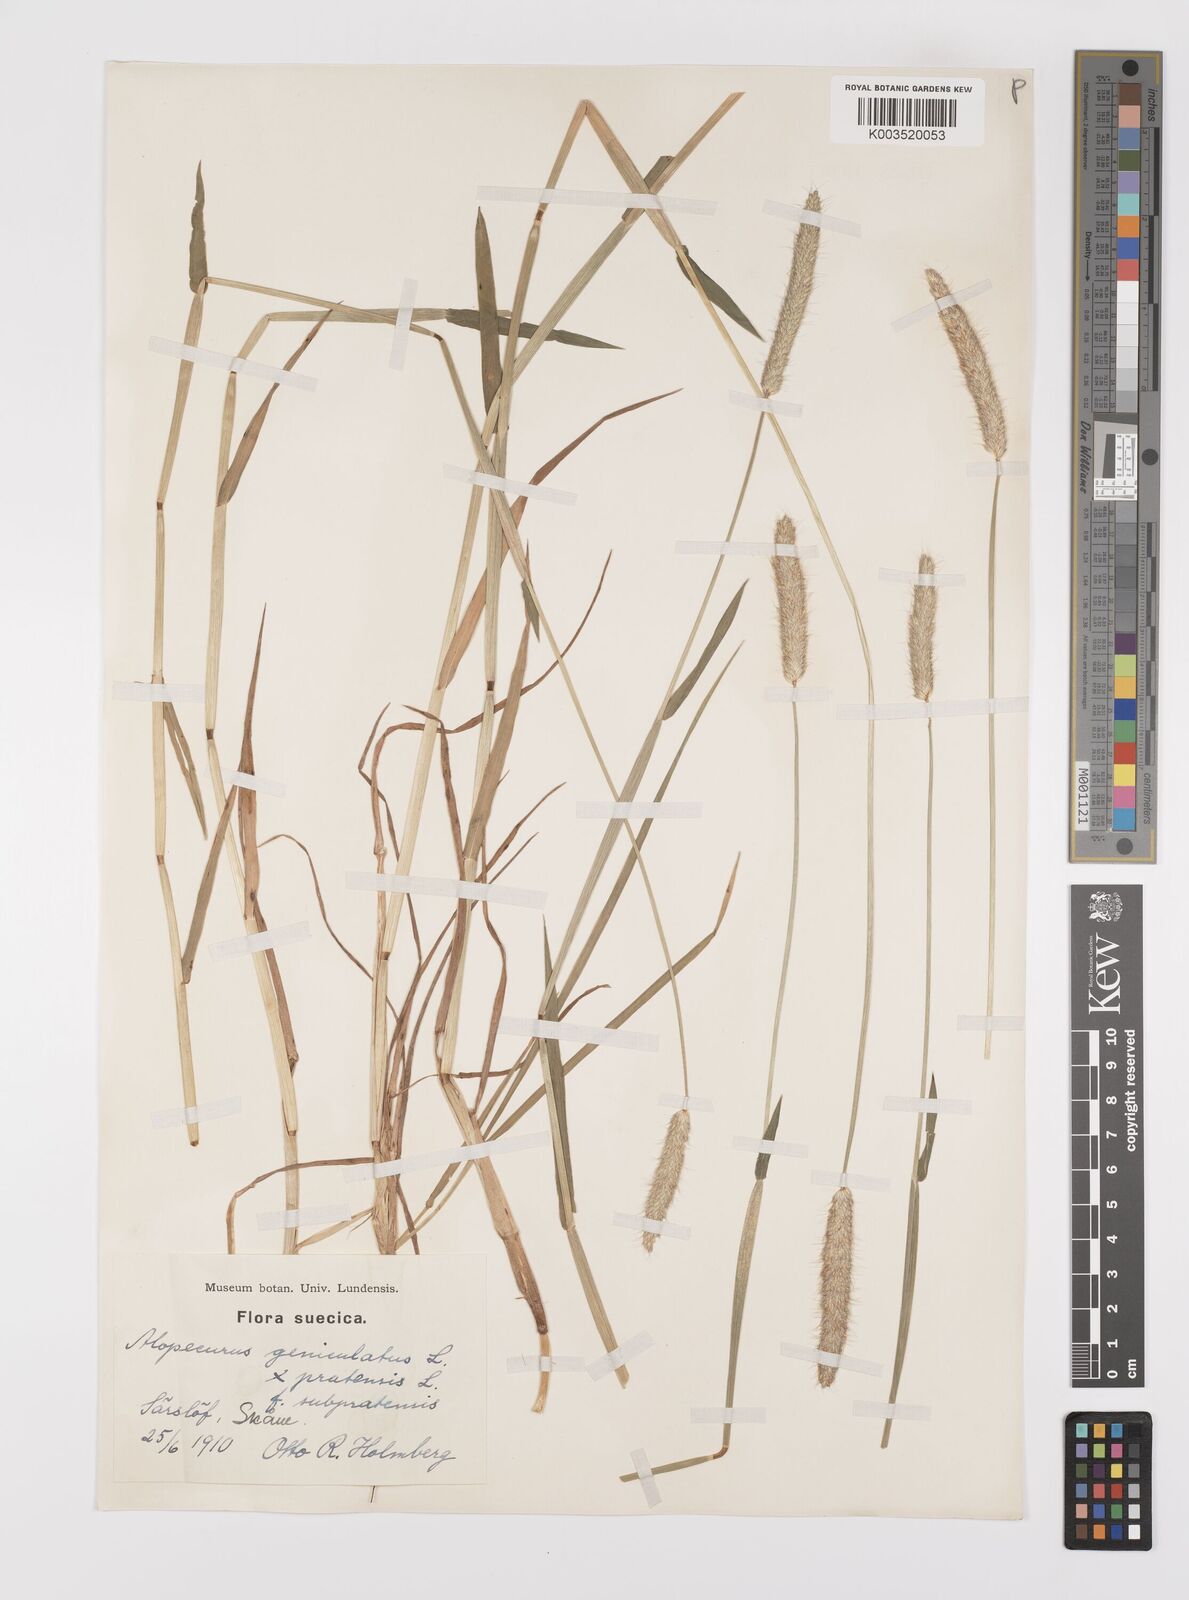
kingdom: Plantae
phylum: Tracheophyta
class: Liliopsida
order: Poales
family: Poaceae
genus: Alopecurus
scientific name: Alopecurus brachystylus
